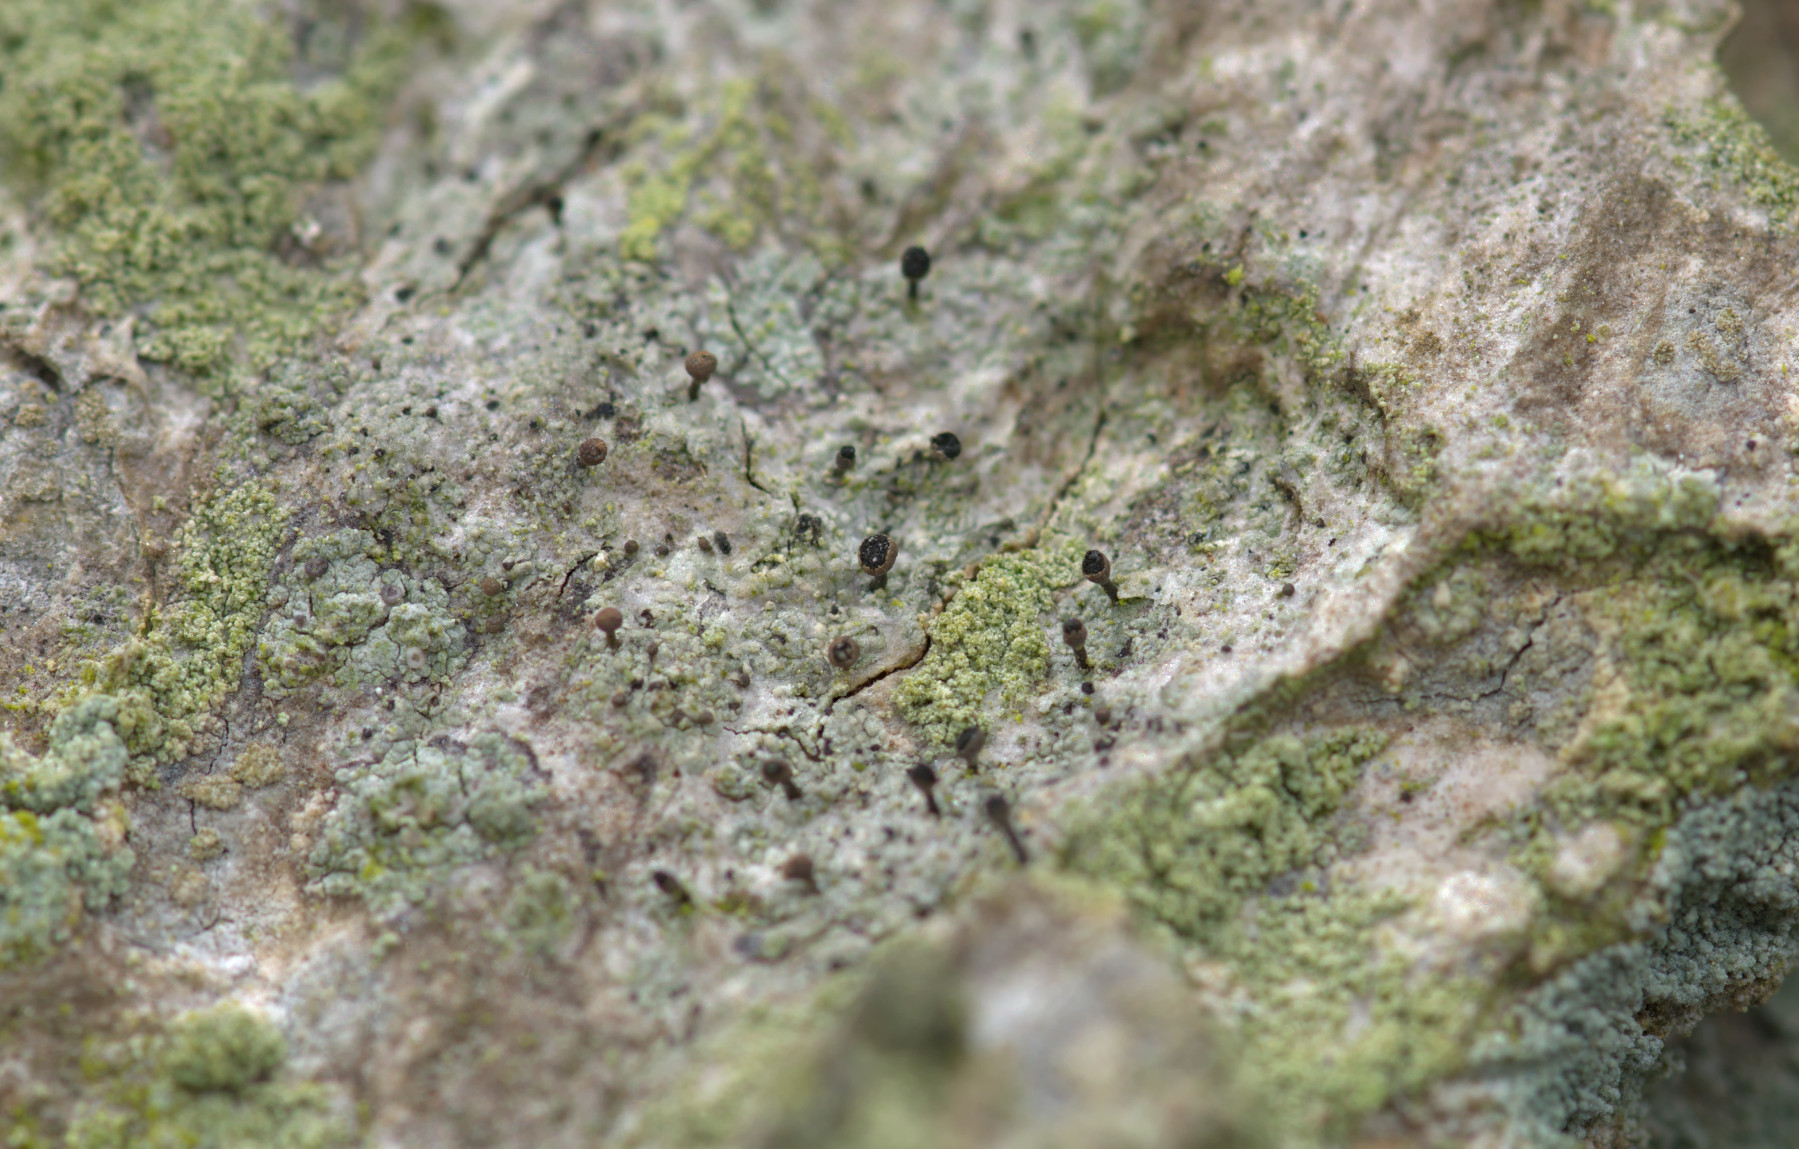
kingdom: Fungi
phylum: Ascomycota
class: Lecanoromycetes
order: Caliciales
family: Caliciaceae
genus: Calicium
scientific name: Calicium salicinum
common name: persoons nålelav
